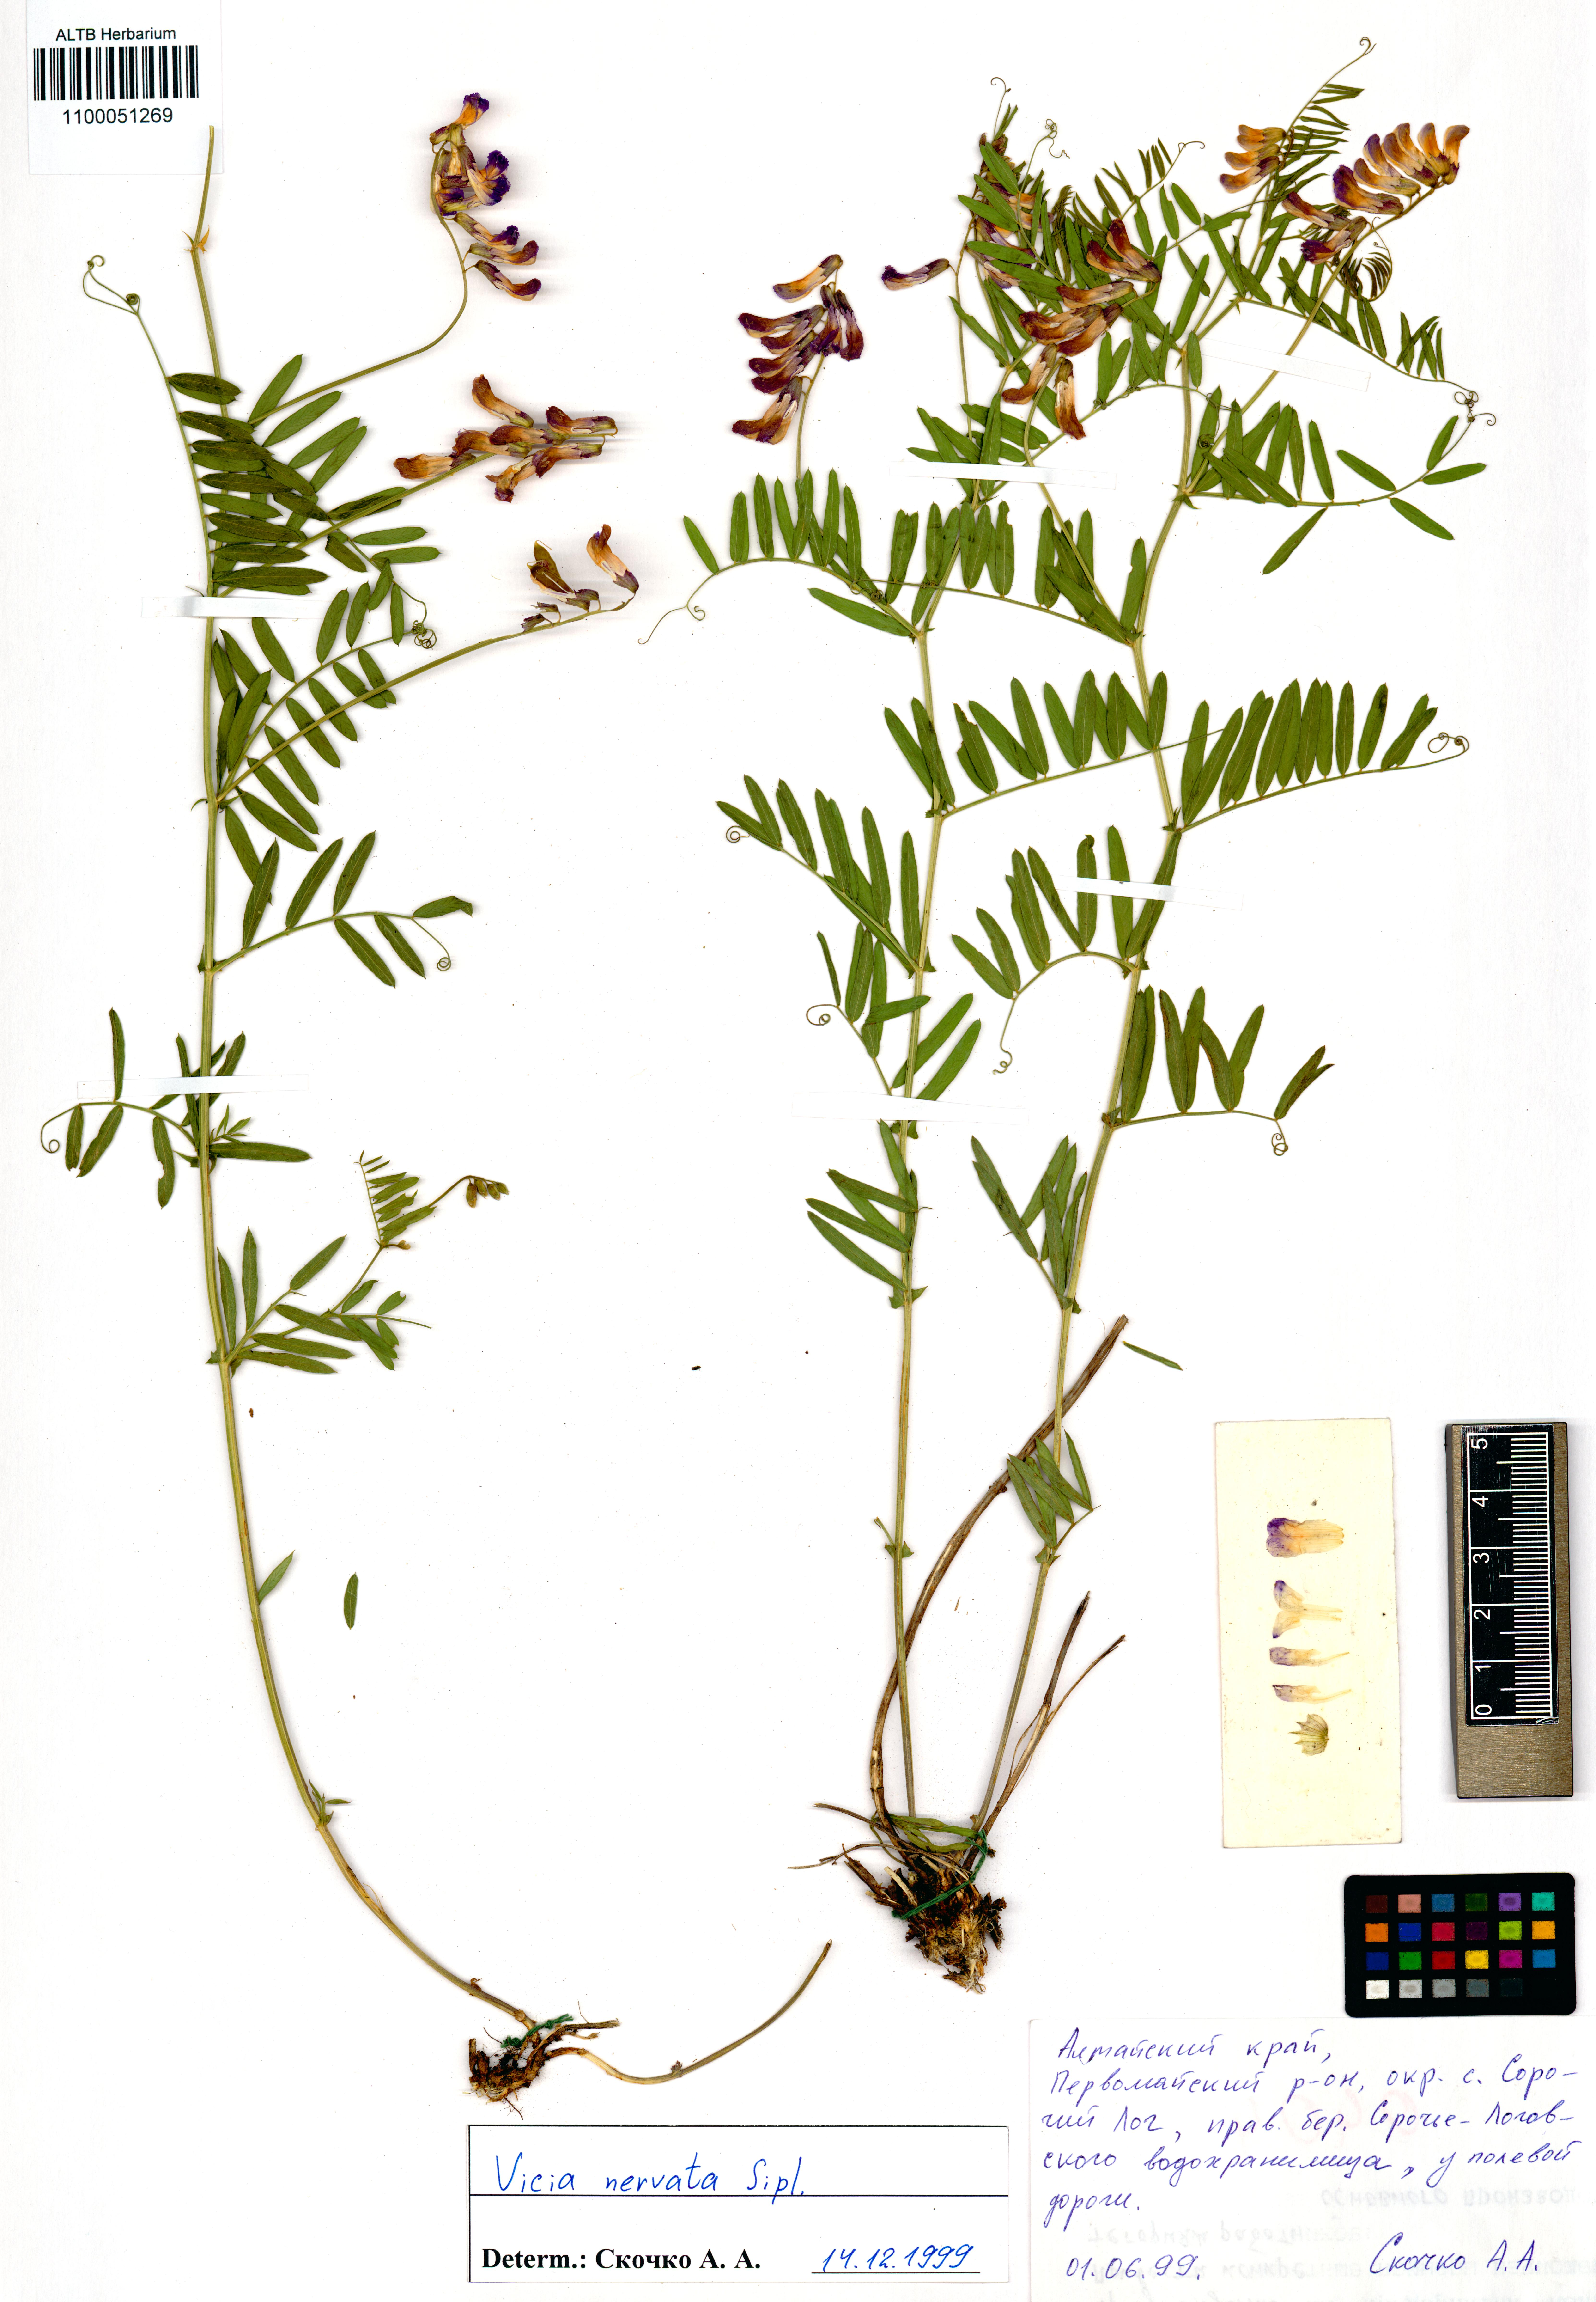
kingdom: Plantae
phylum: Tracheophyta
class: Magnoliopsida
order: Fabales
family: Fabaceae
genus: Vicia
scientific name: Vicia multicaulis
